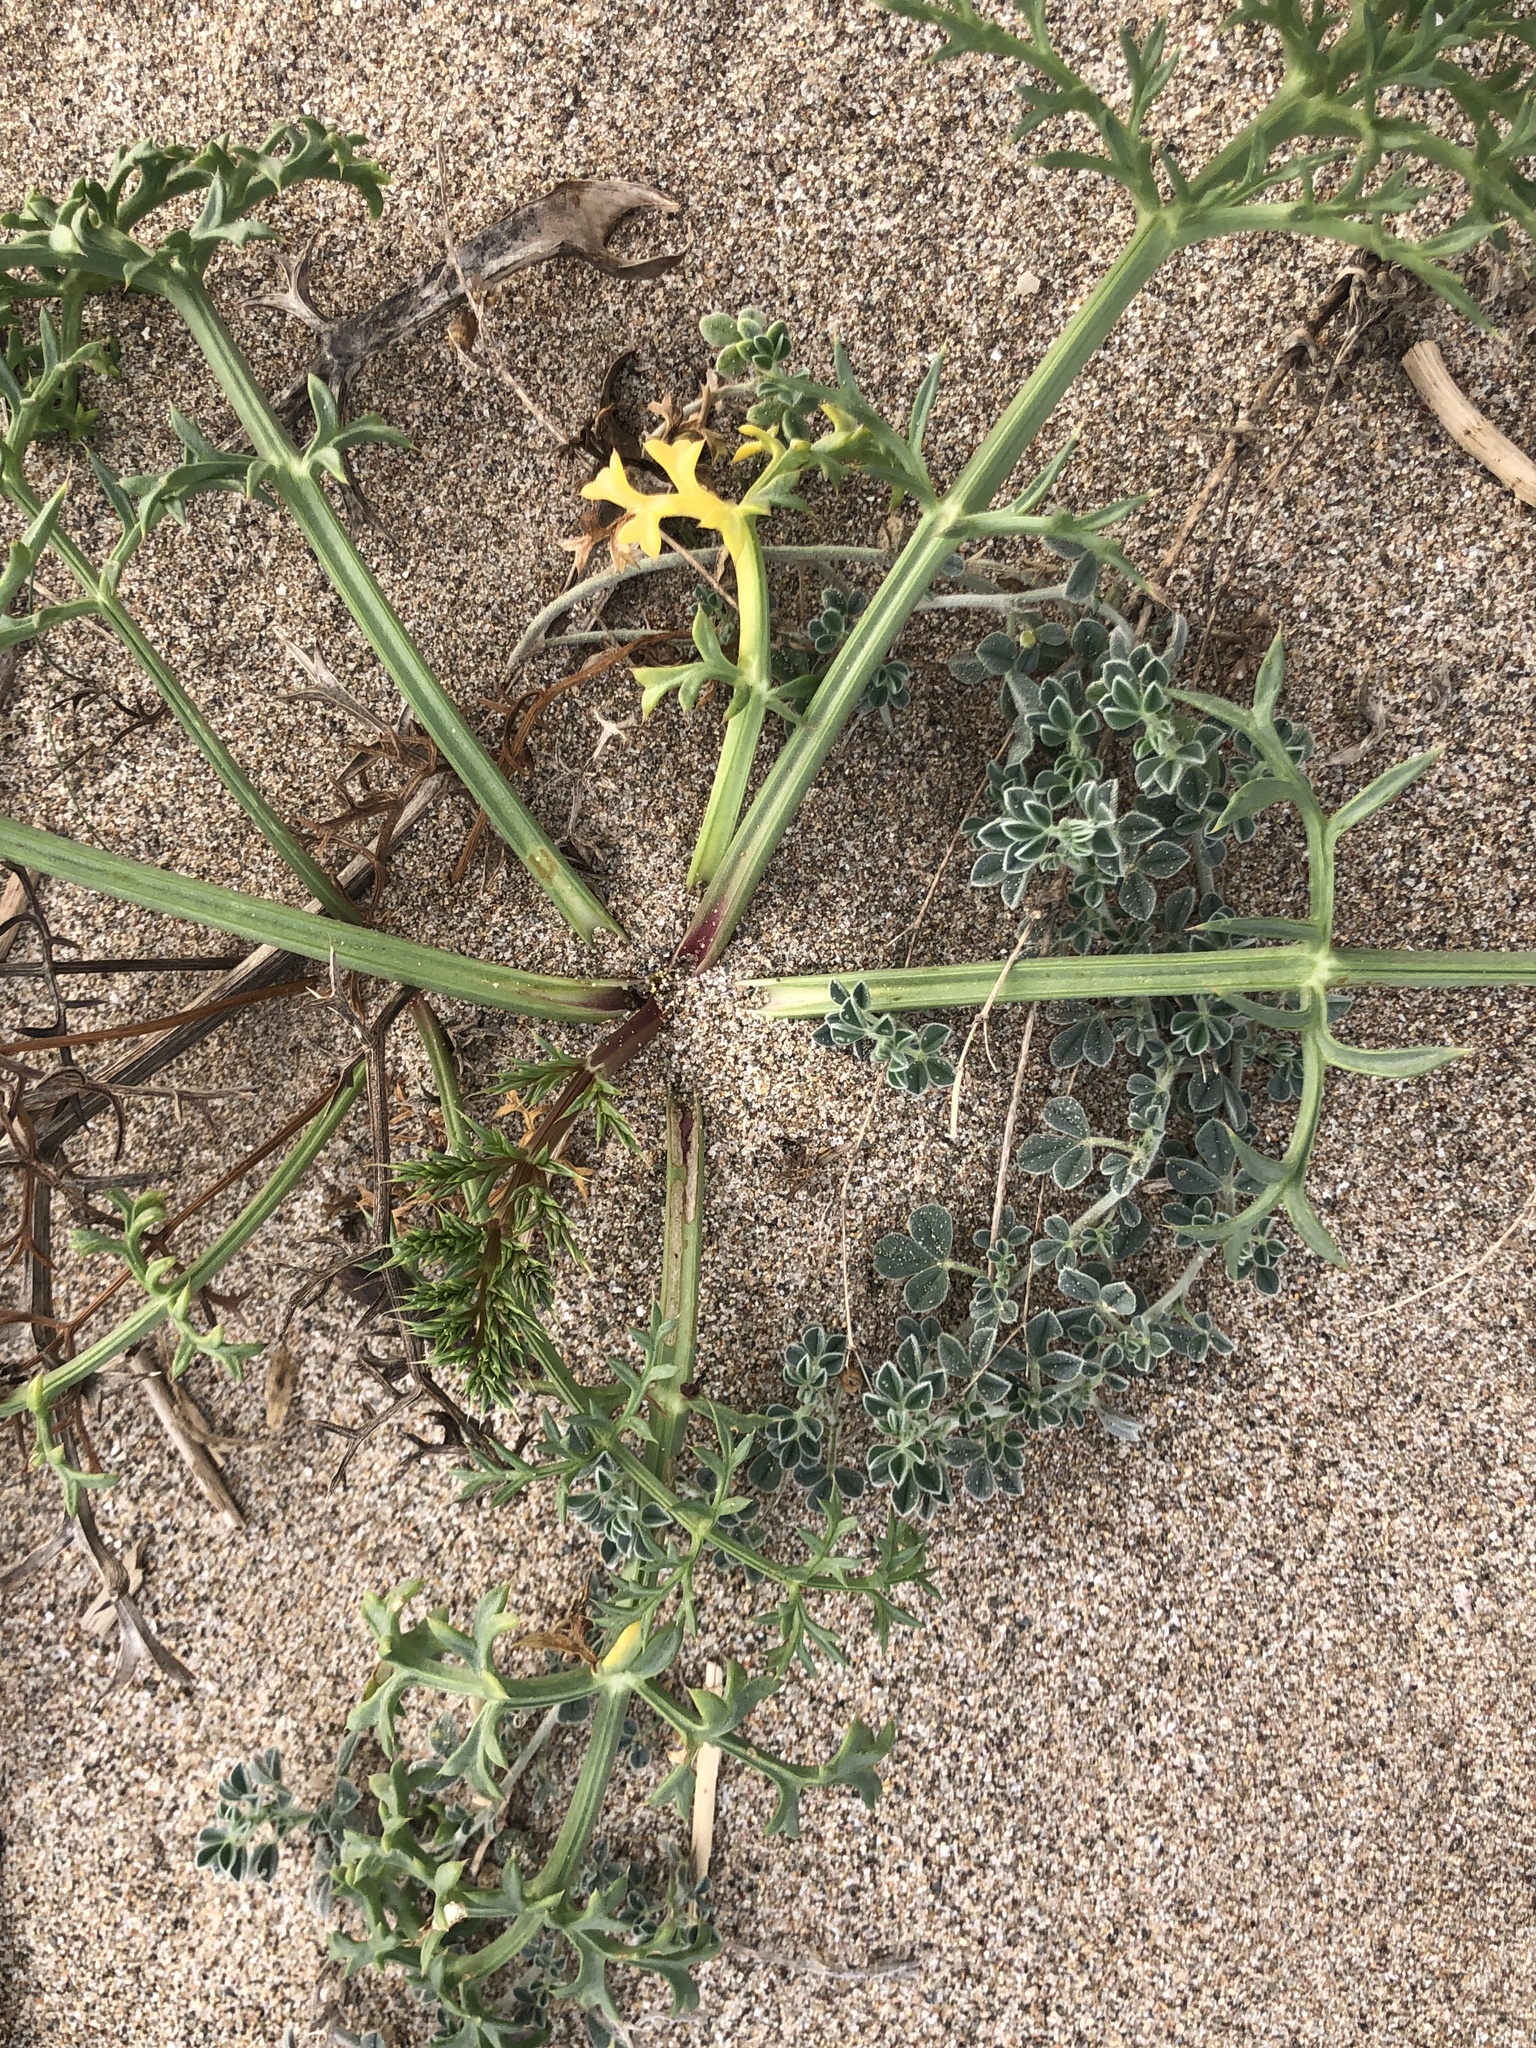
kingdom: Plantae
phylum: Tracheophyta
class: Magnoliopsida
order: Fabales
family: Fabaceae
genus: Lotus
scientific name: Lotus creticus
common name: Cretan bird's-foot trefoil
